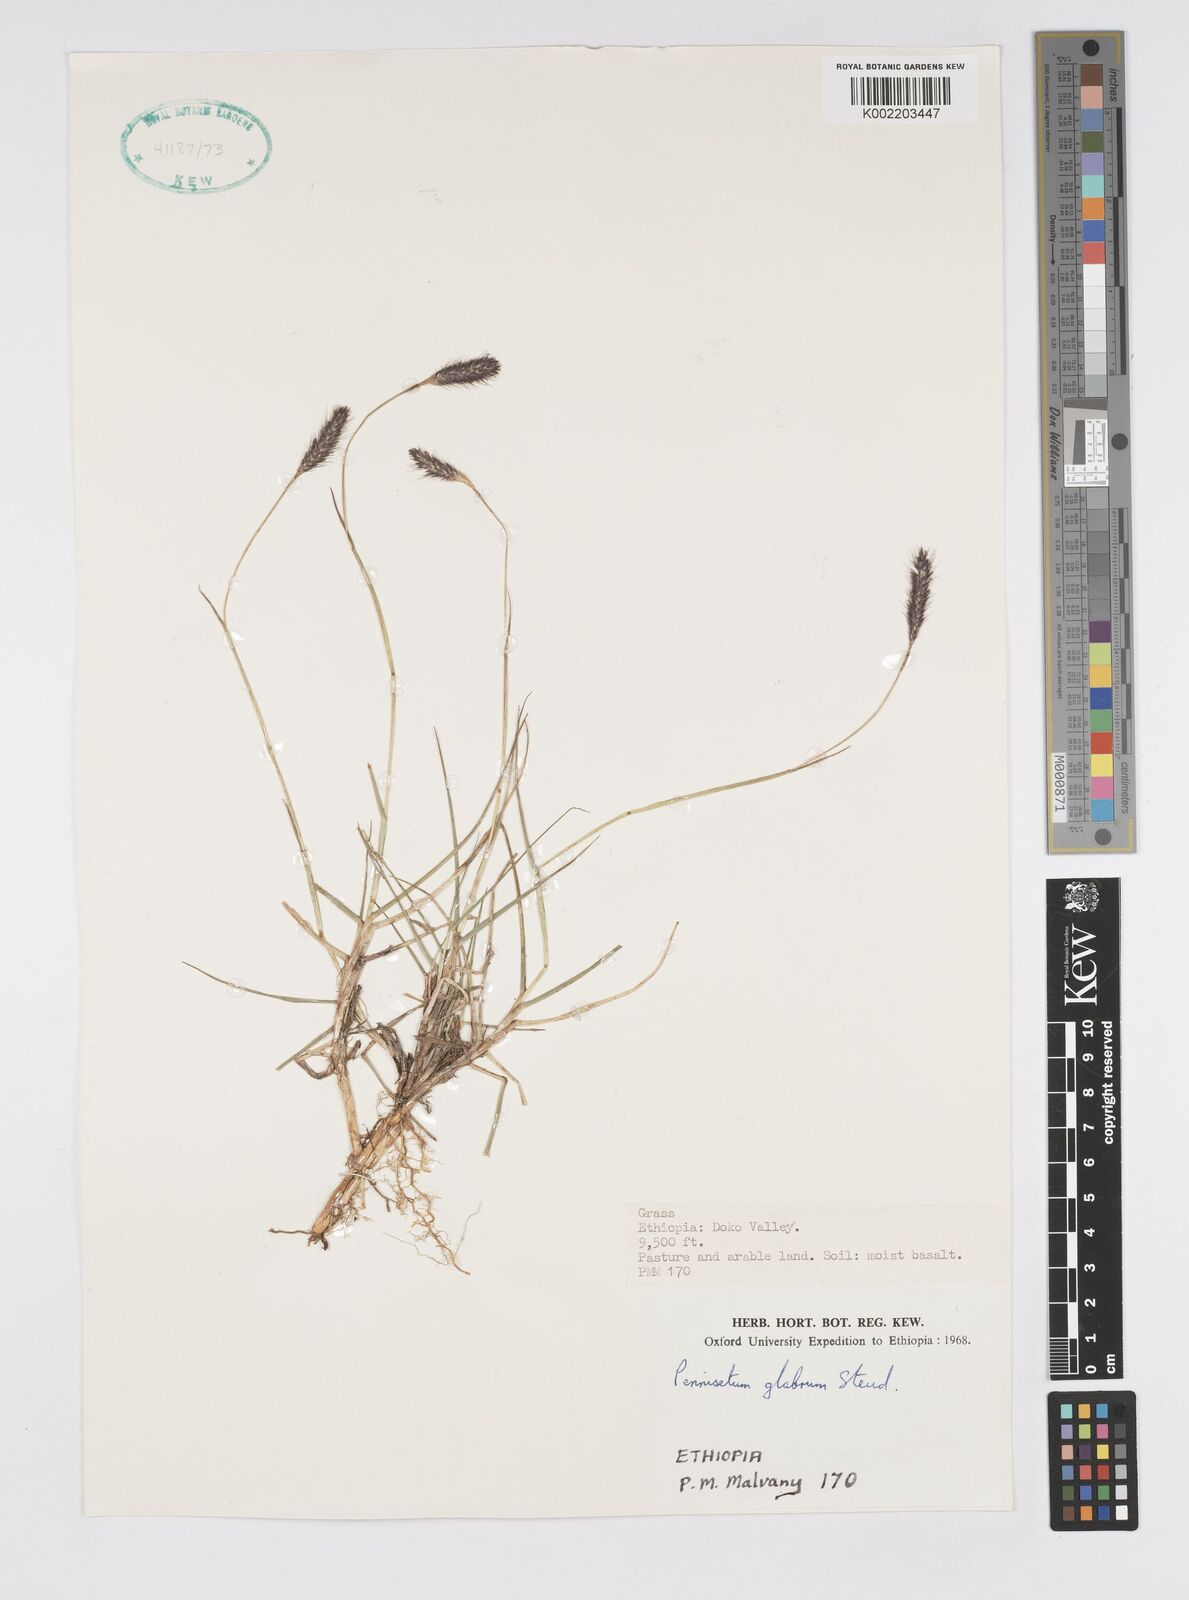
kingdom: Plantae
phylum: Tracheophyta
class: Liliopsida
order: Poales
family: Poaceae
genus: Cenchrus
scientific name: Cenchrus geniculatus
